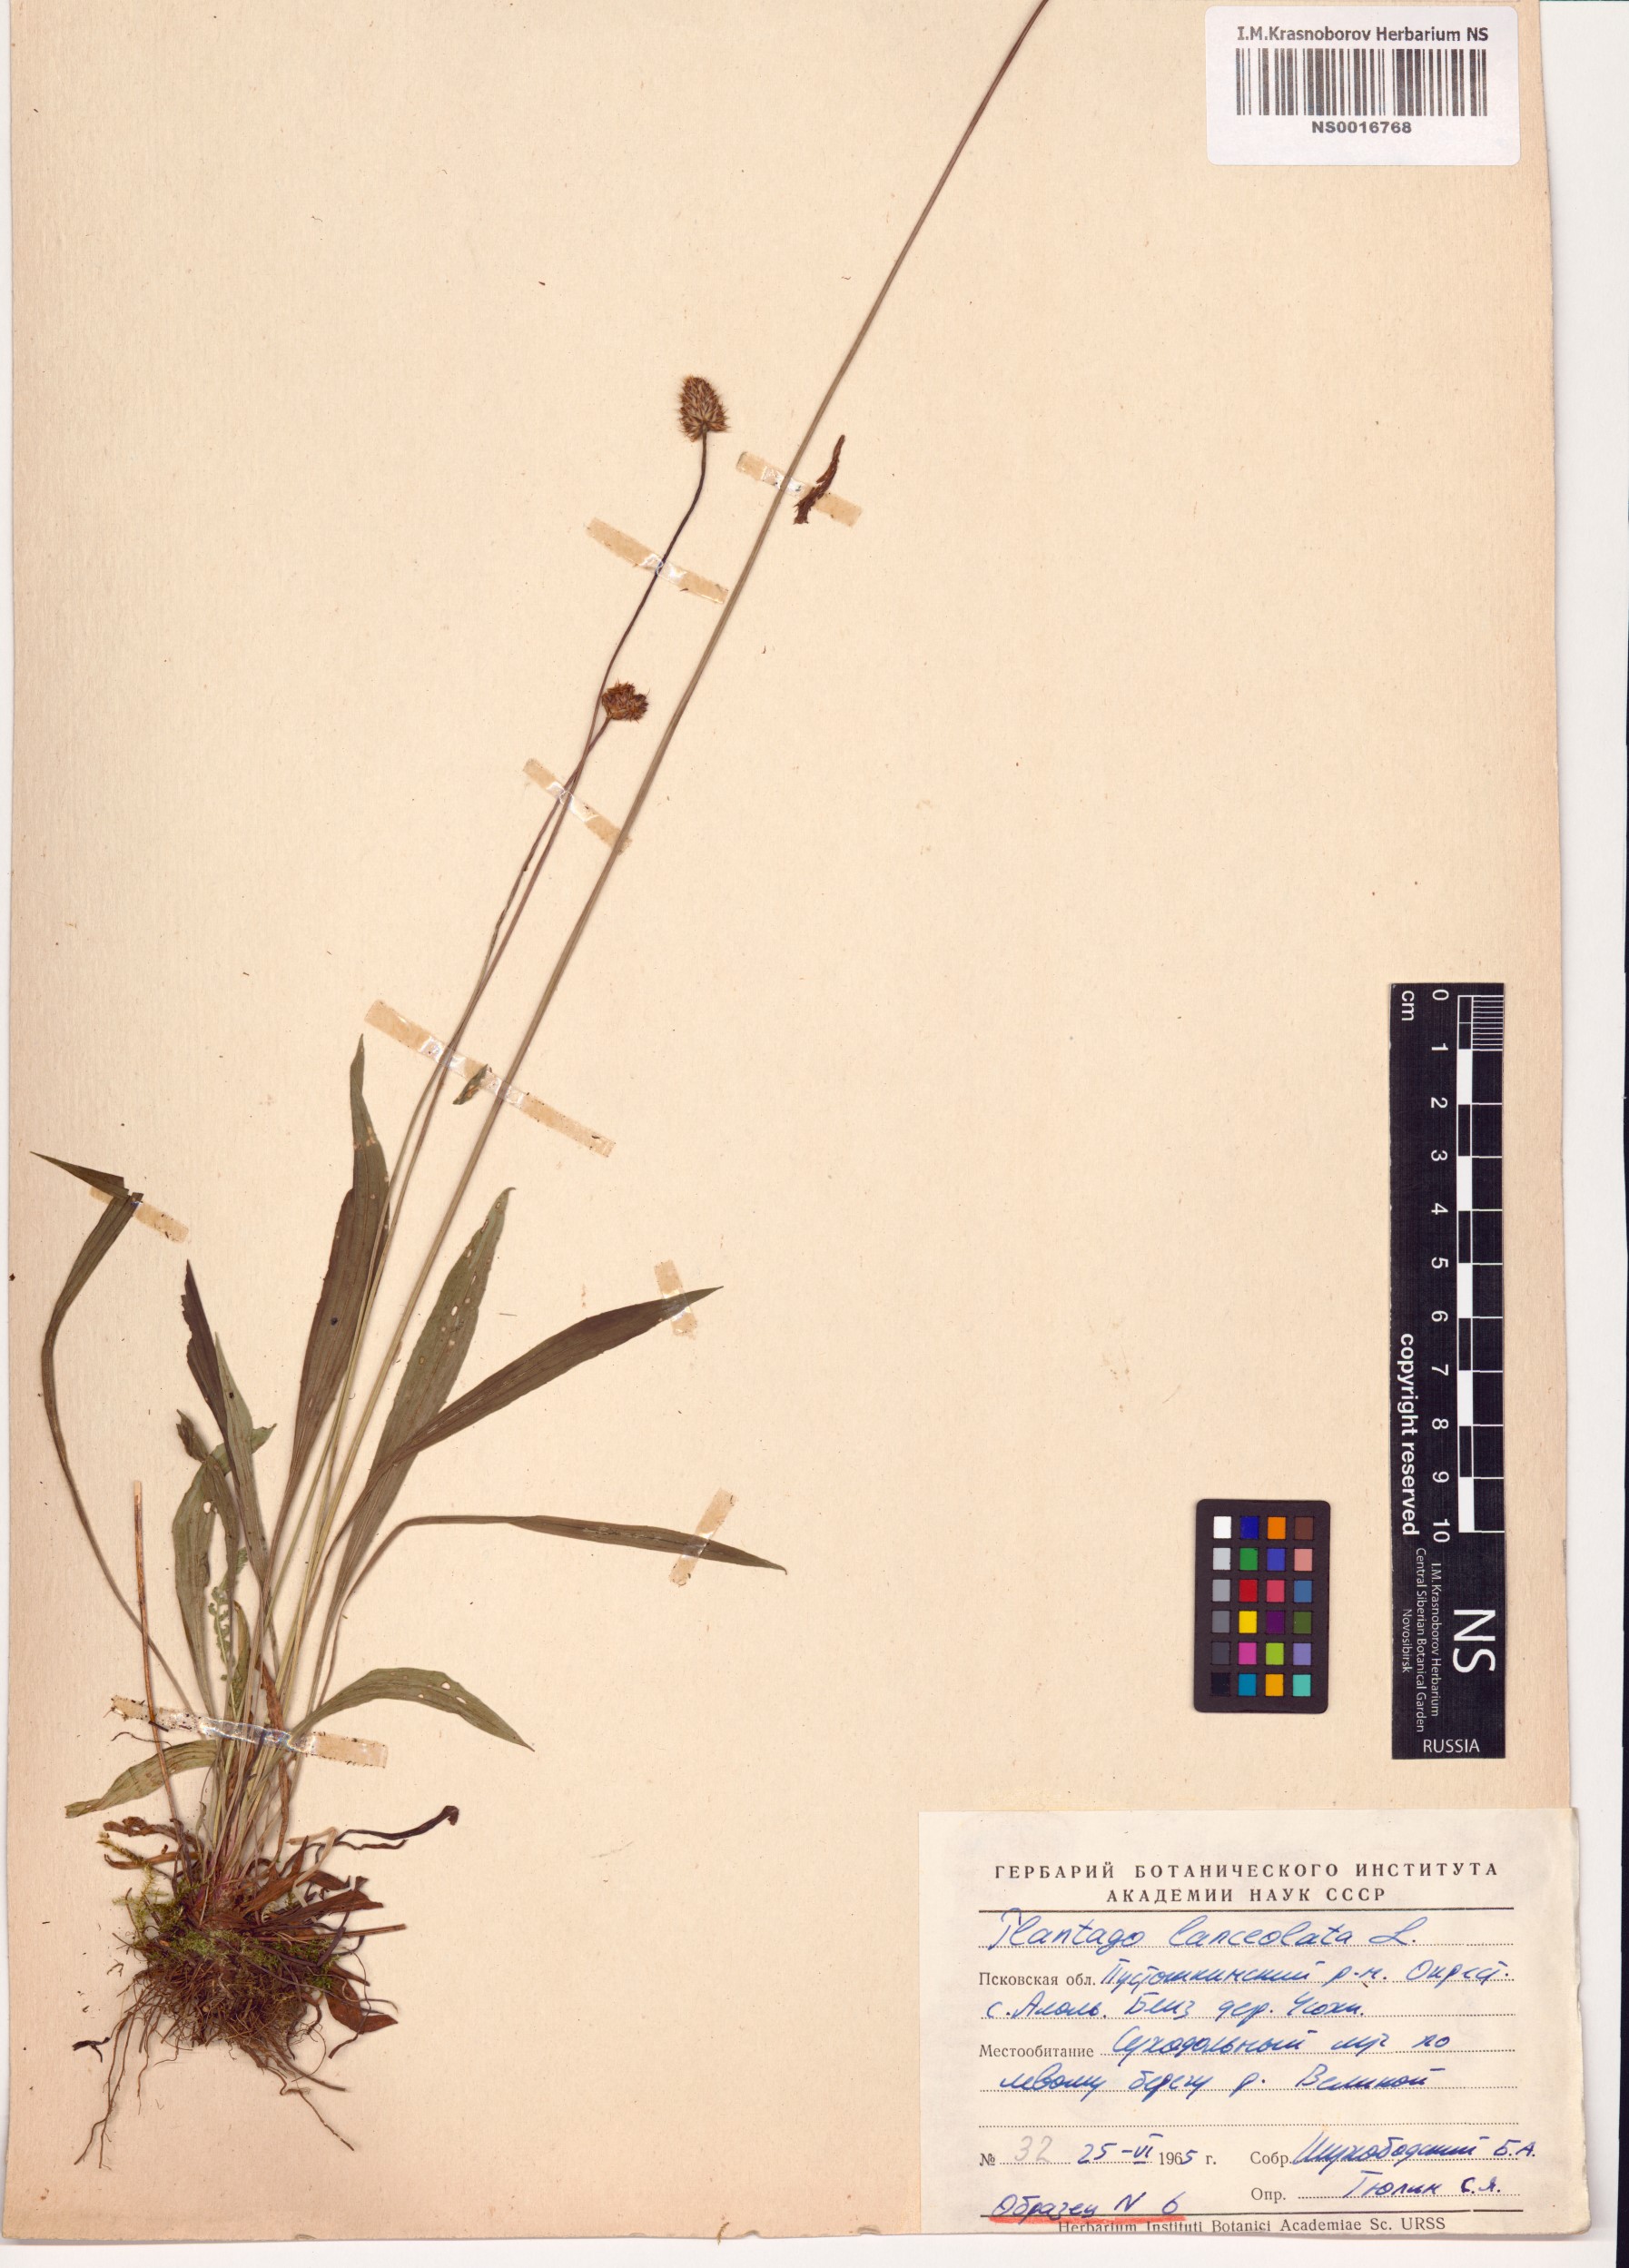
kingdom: Plantae
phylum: Tracheophyta
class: Magnoliopsida
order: Lamiales
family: Plantaginaceae
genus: Plantago
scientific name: Plantago lanceolata
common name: Ribwort plantain
